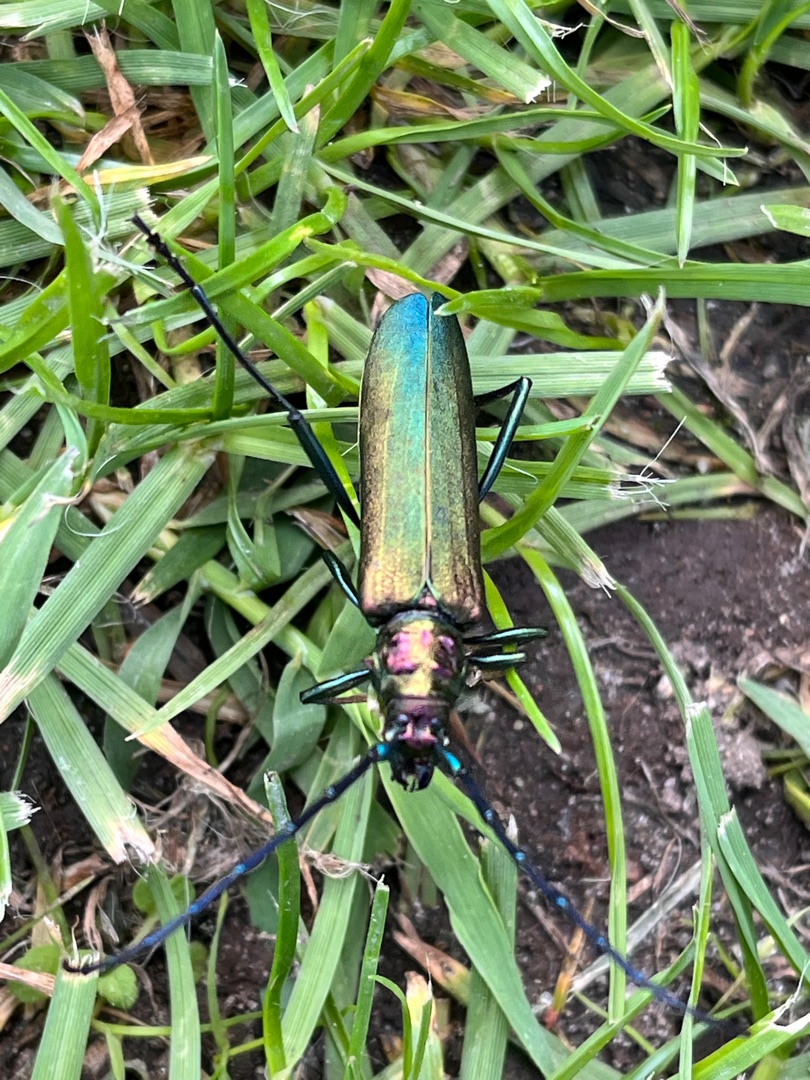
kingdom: Animalia
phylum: Arthropoda
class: Insecta
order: Coleoptera
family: Cerambycidae
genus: Aromia
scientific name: Aromia moschata
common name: Moskusbuk
